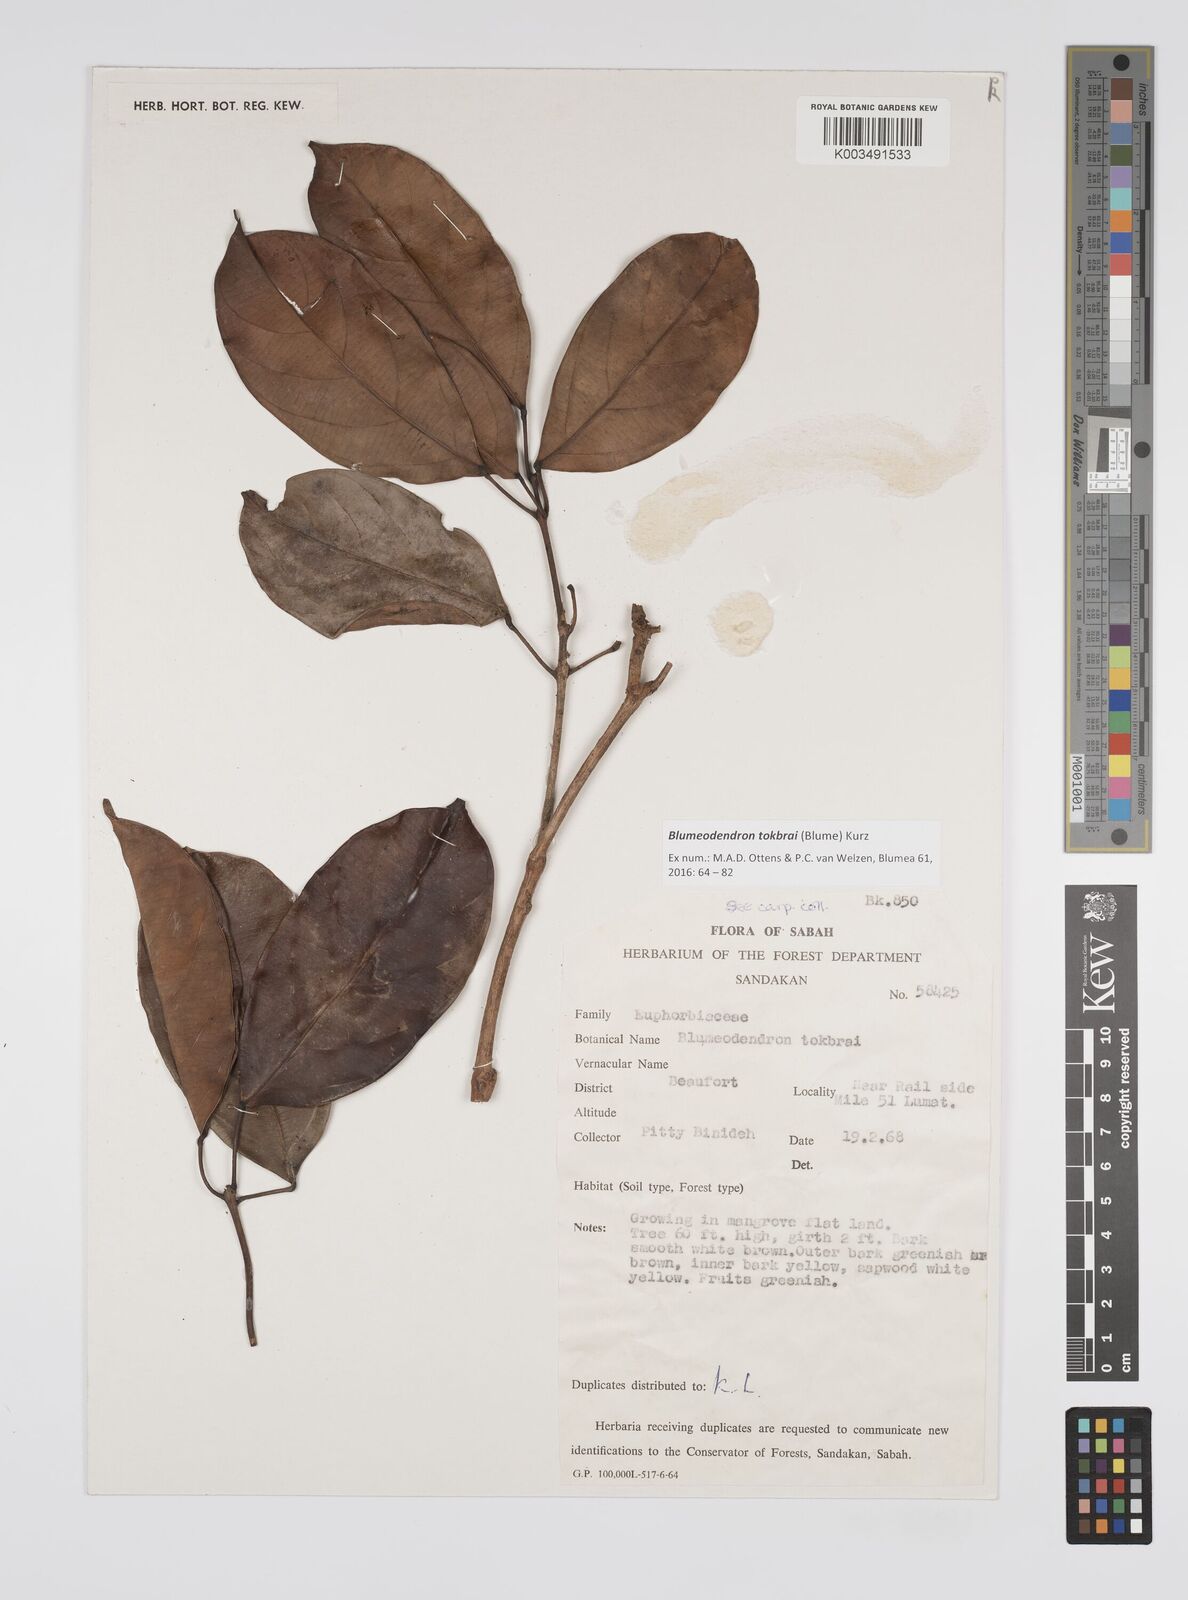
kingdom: Plantae
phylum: Tracheophyta
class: Magnoliopsida
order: Malpighiales
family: Euphorbiaceae
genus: Blumeodendron
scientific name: Blumeodendron tokbrai
